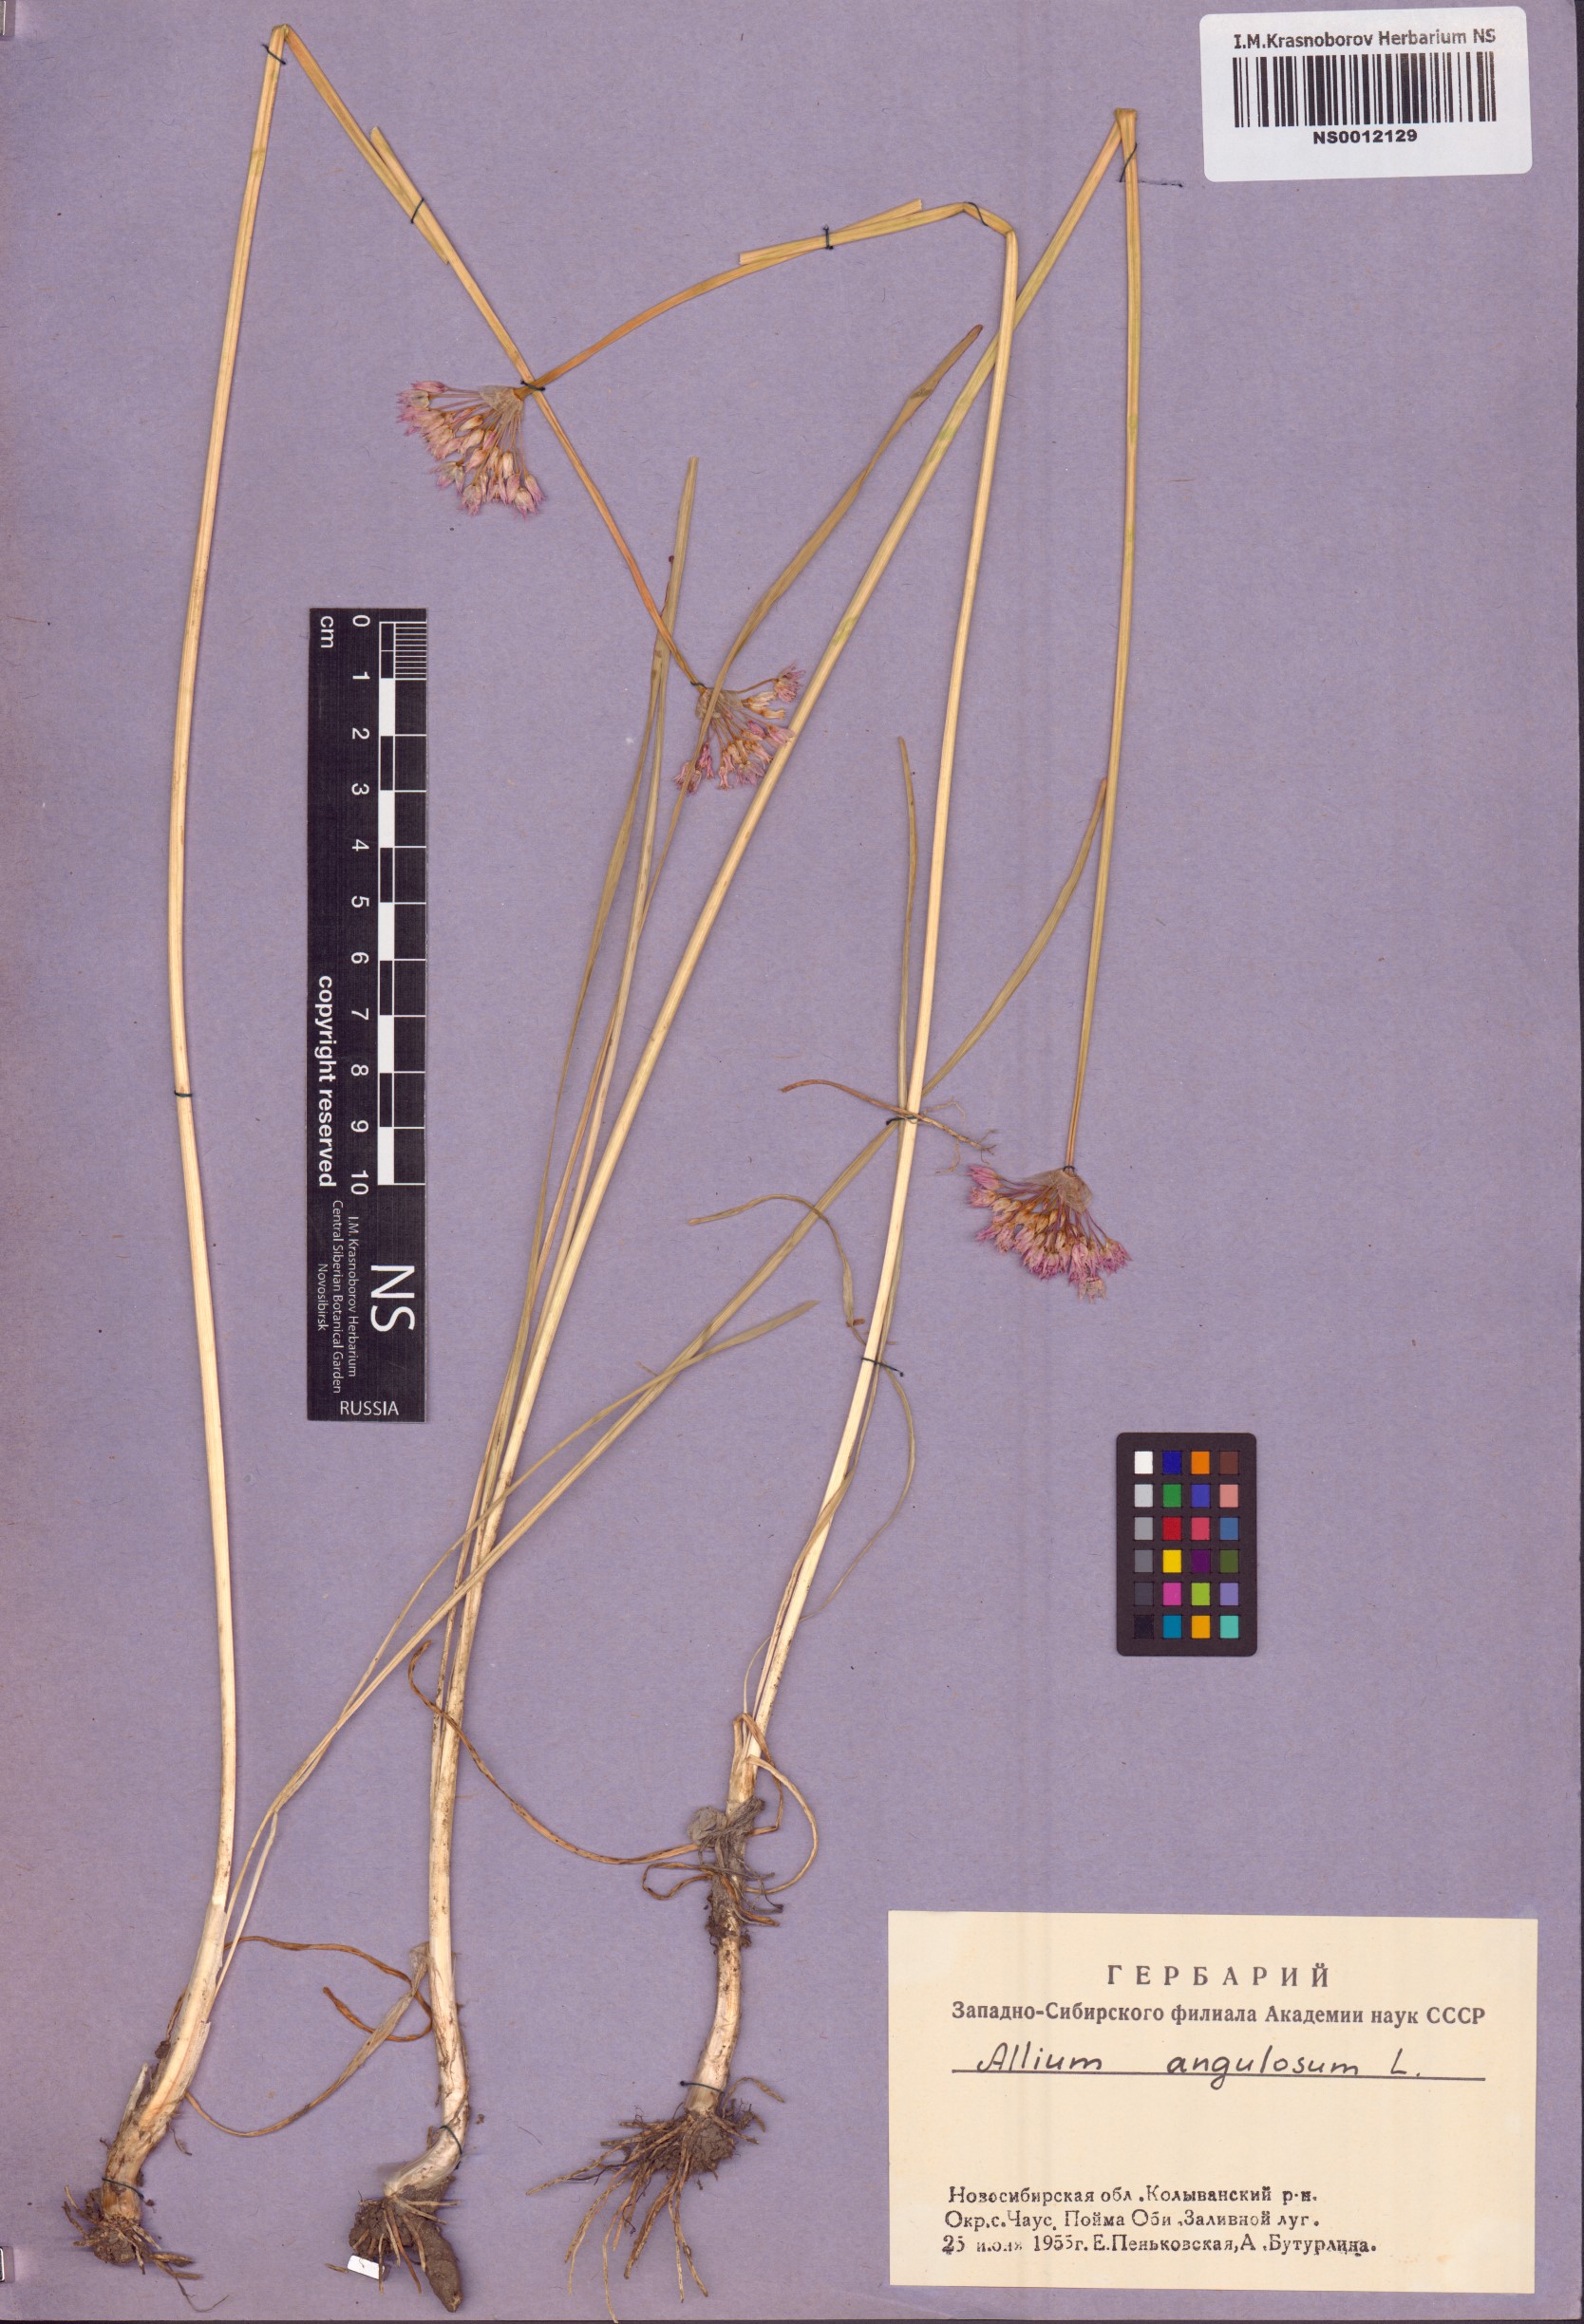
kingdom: Plantae
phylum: Tracheophyta
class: Liliopsida
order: Asparagales
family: Amaryllidaceae
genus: Allium
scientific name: Allium angulosum
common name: Mouse garlic
